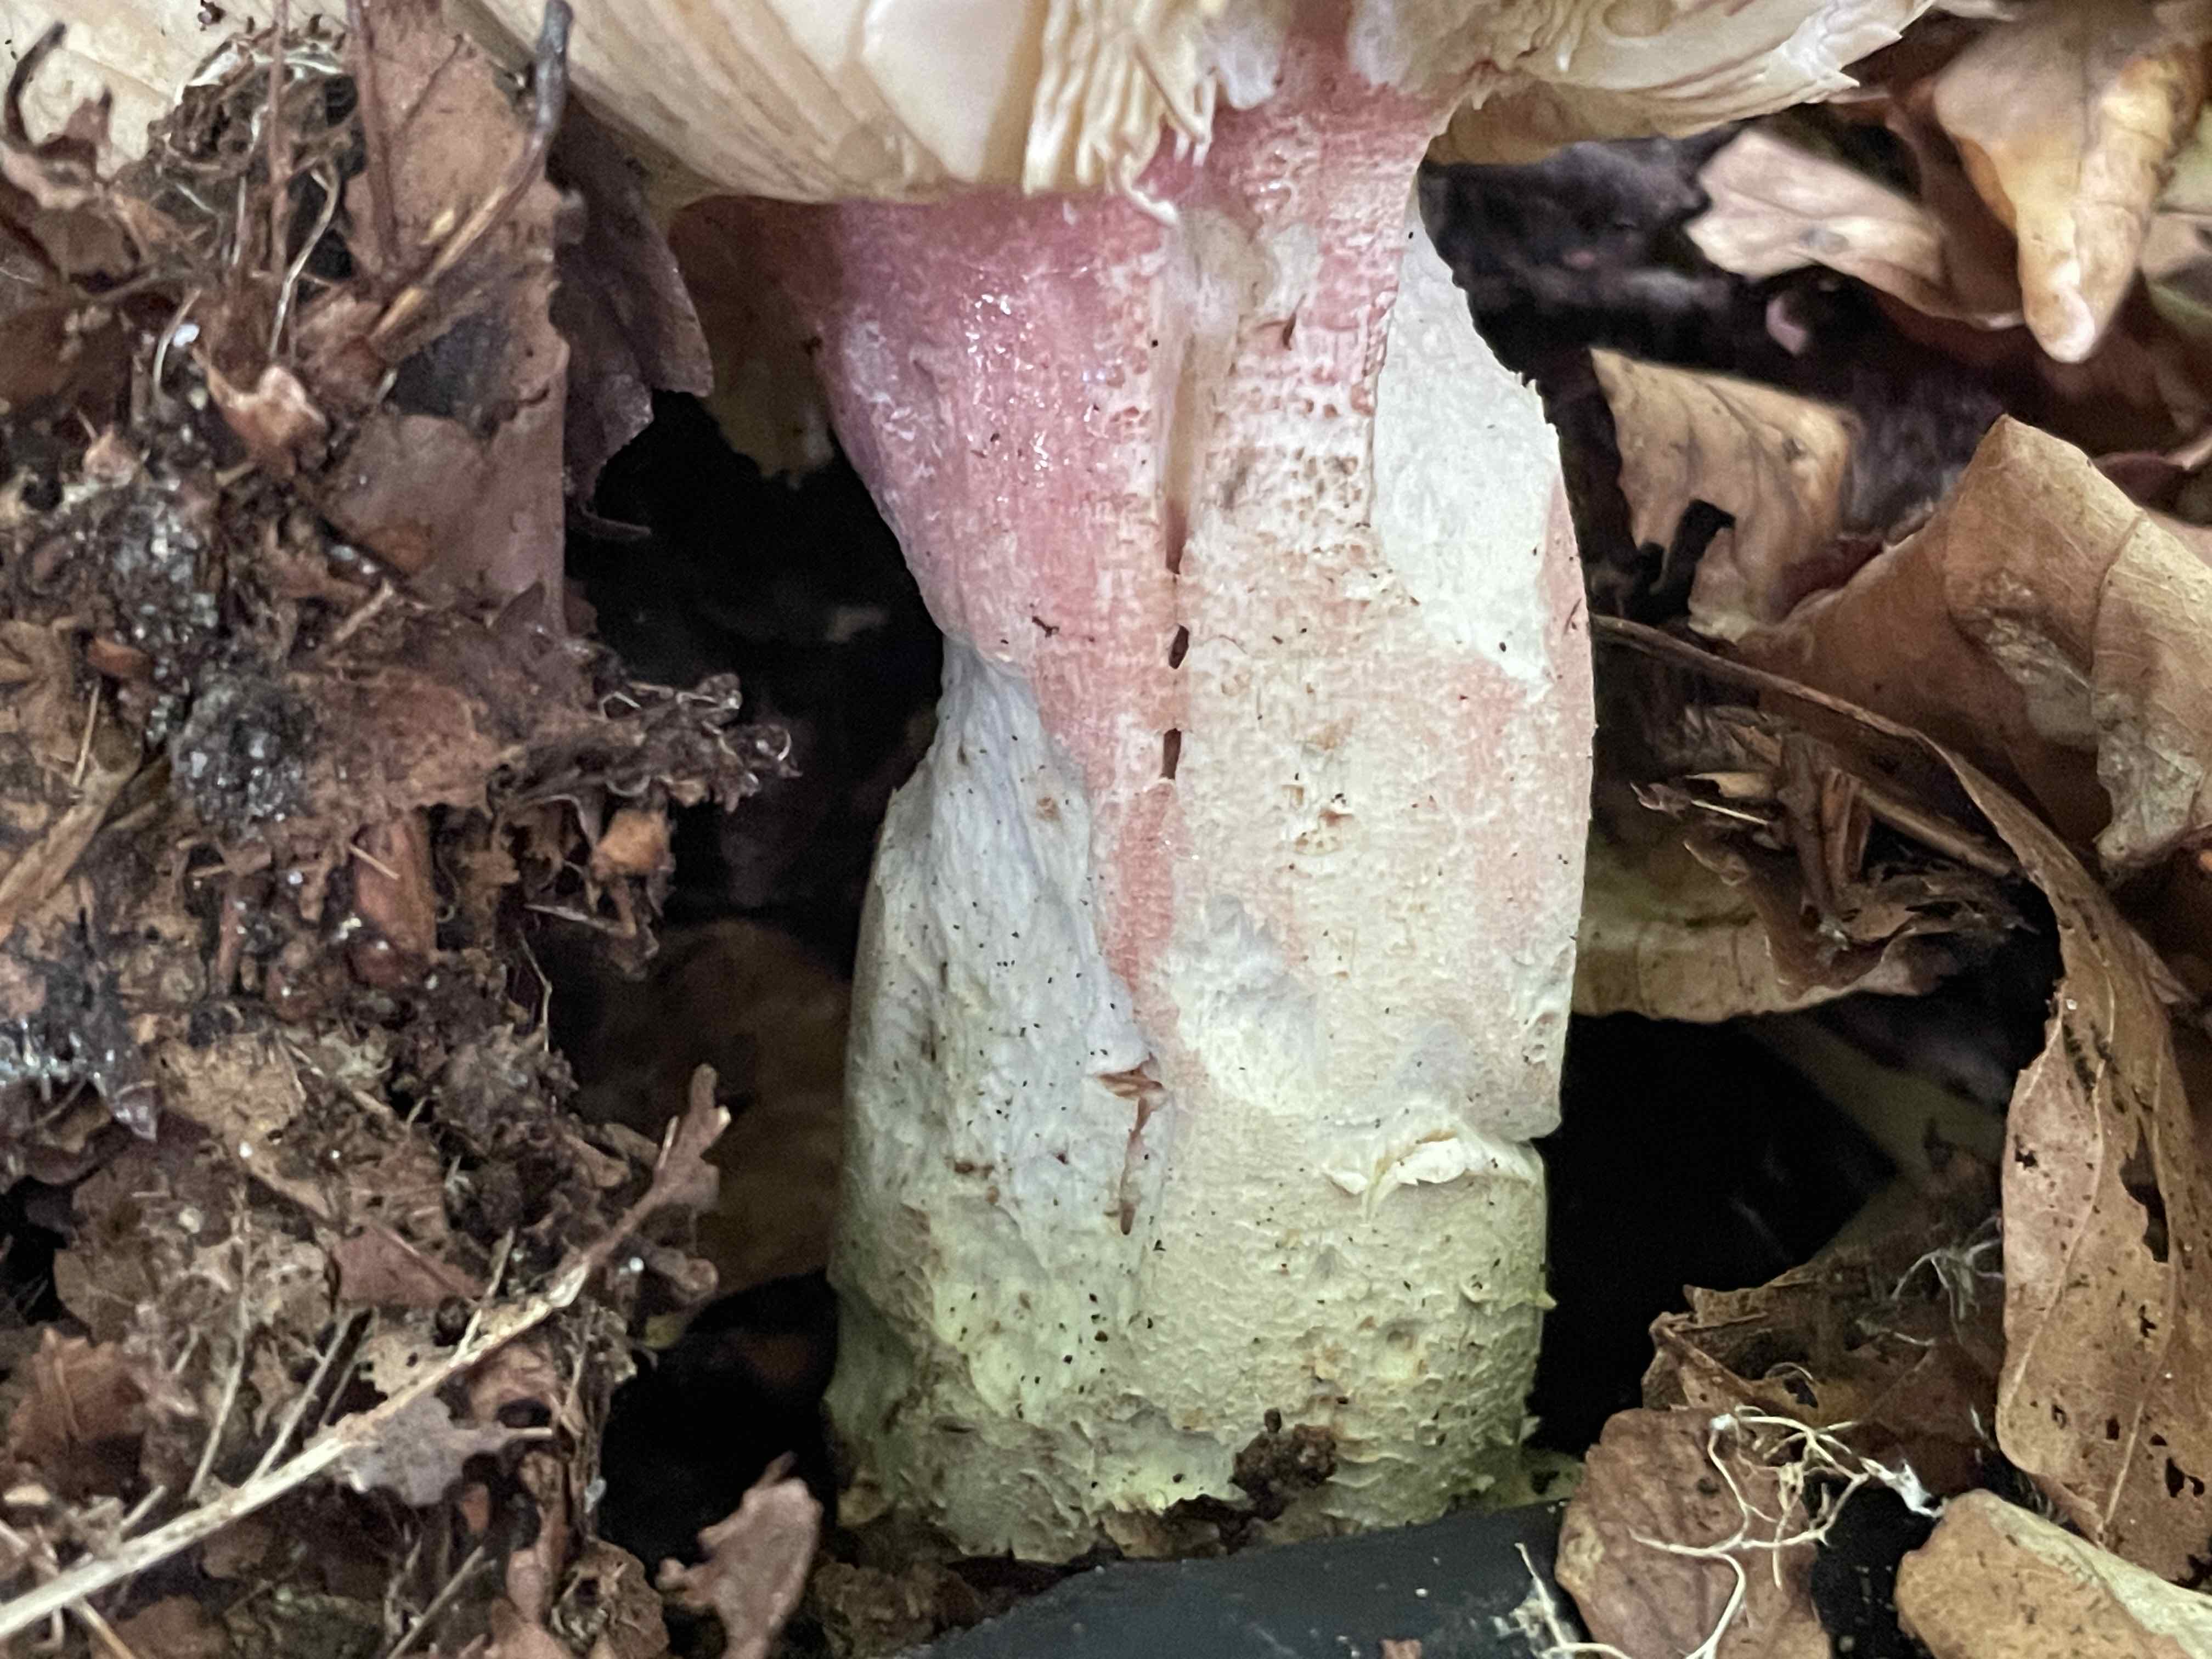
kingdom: Fungi
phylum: Basidiomycota
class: Agaricomycetes
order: Russulales
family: Russulaceae
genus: Russula
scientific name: Russula olivacea
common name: stor skørhat
